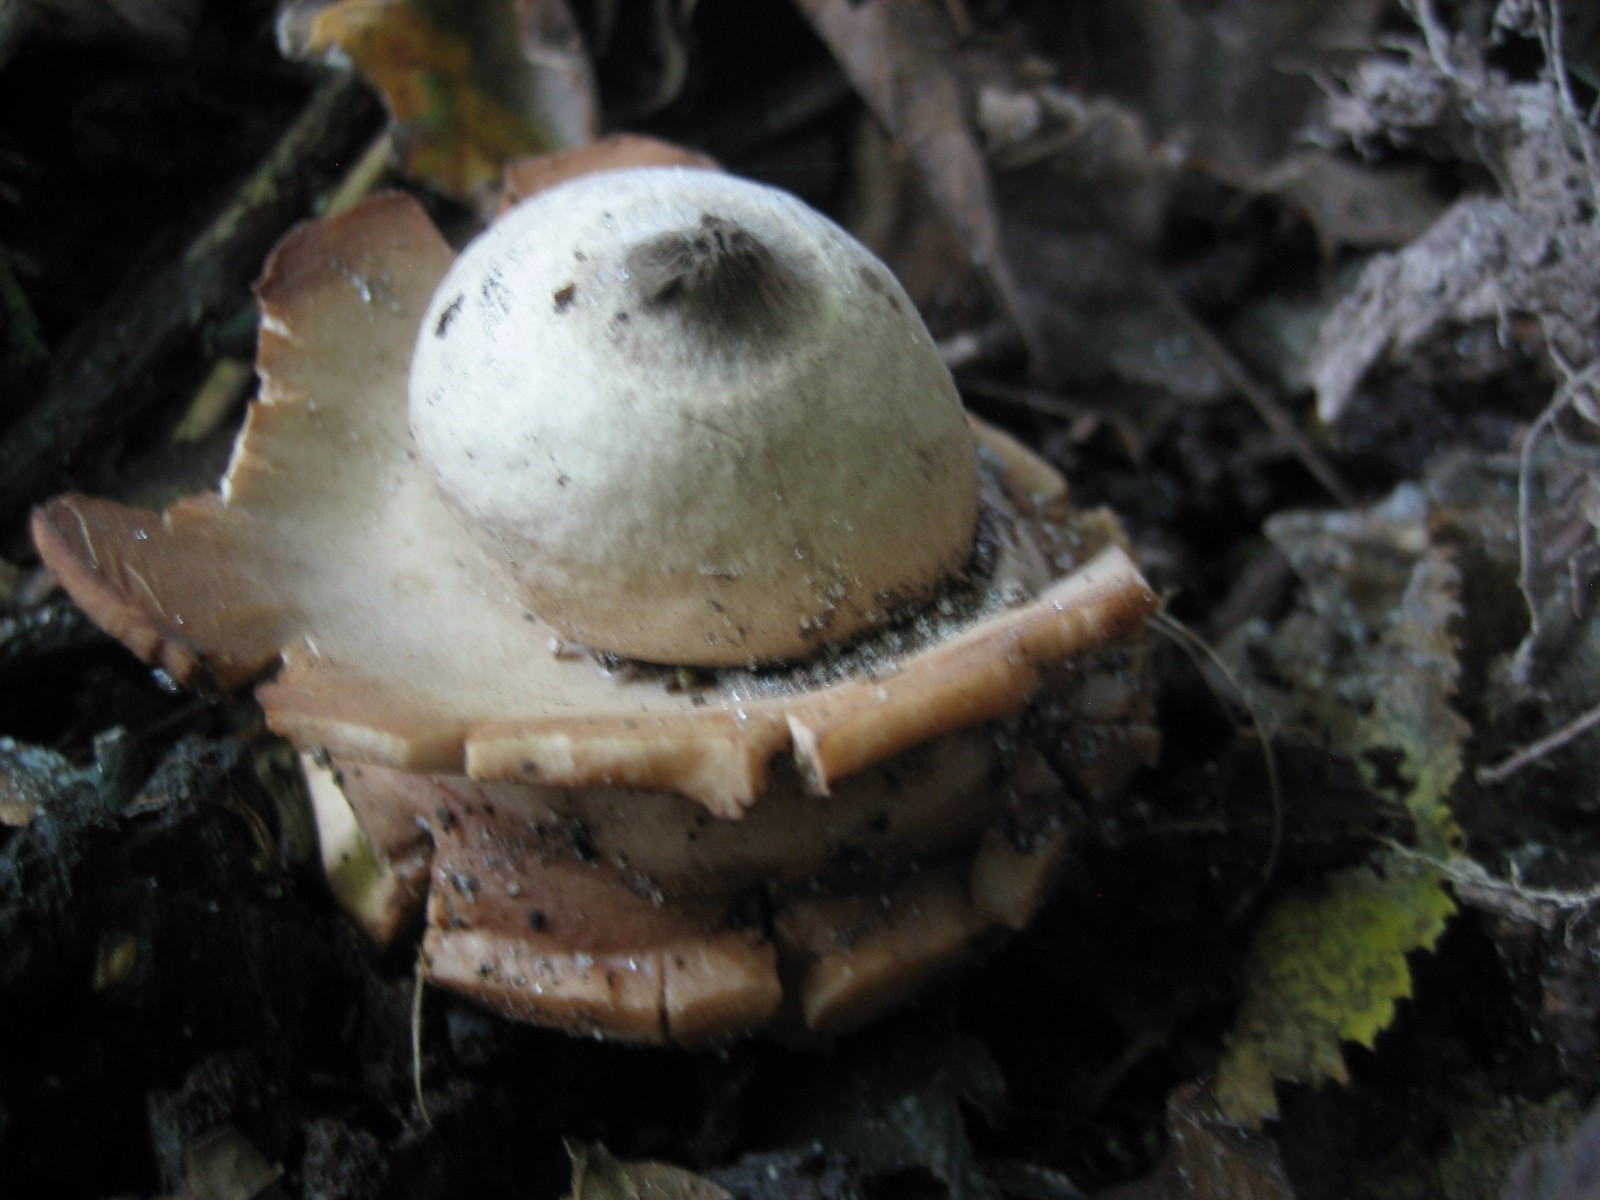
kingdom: Fungi
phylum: Basidiomycota
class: Agaricomycetes
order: Geastrales
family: Geastraceae
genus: Geastrum
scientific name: Geastrum michelianum
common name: kødet stjernebold
